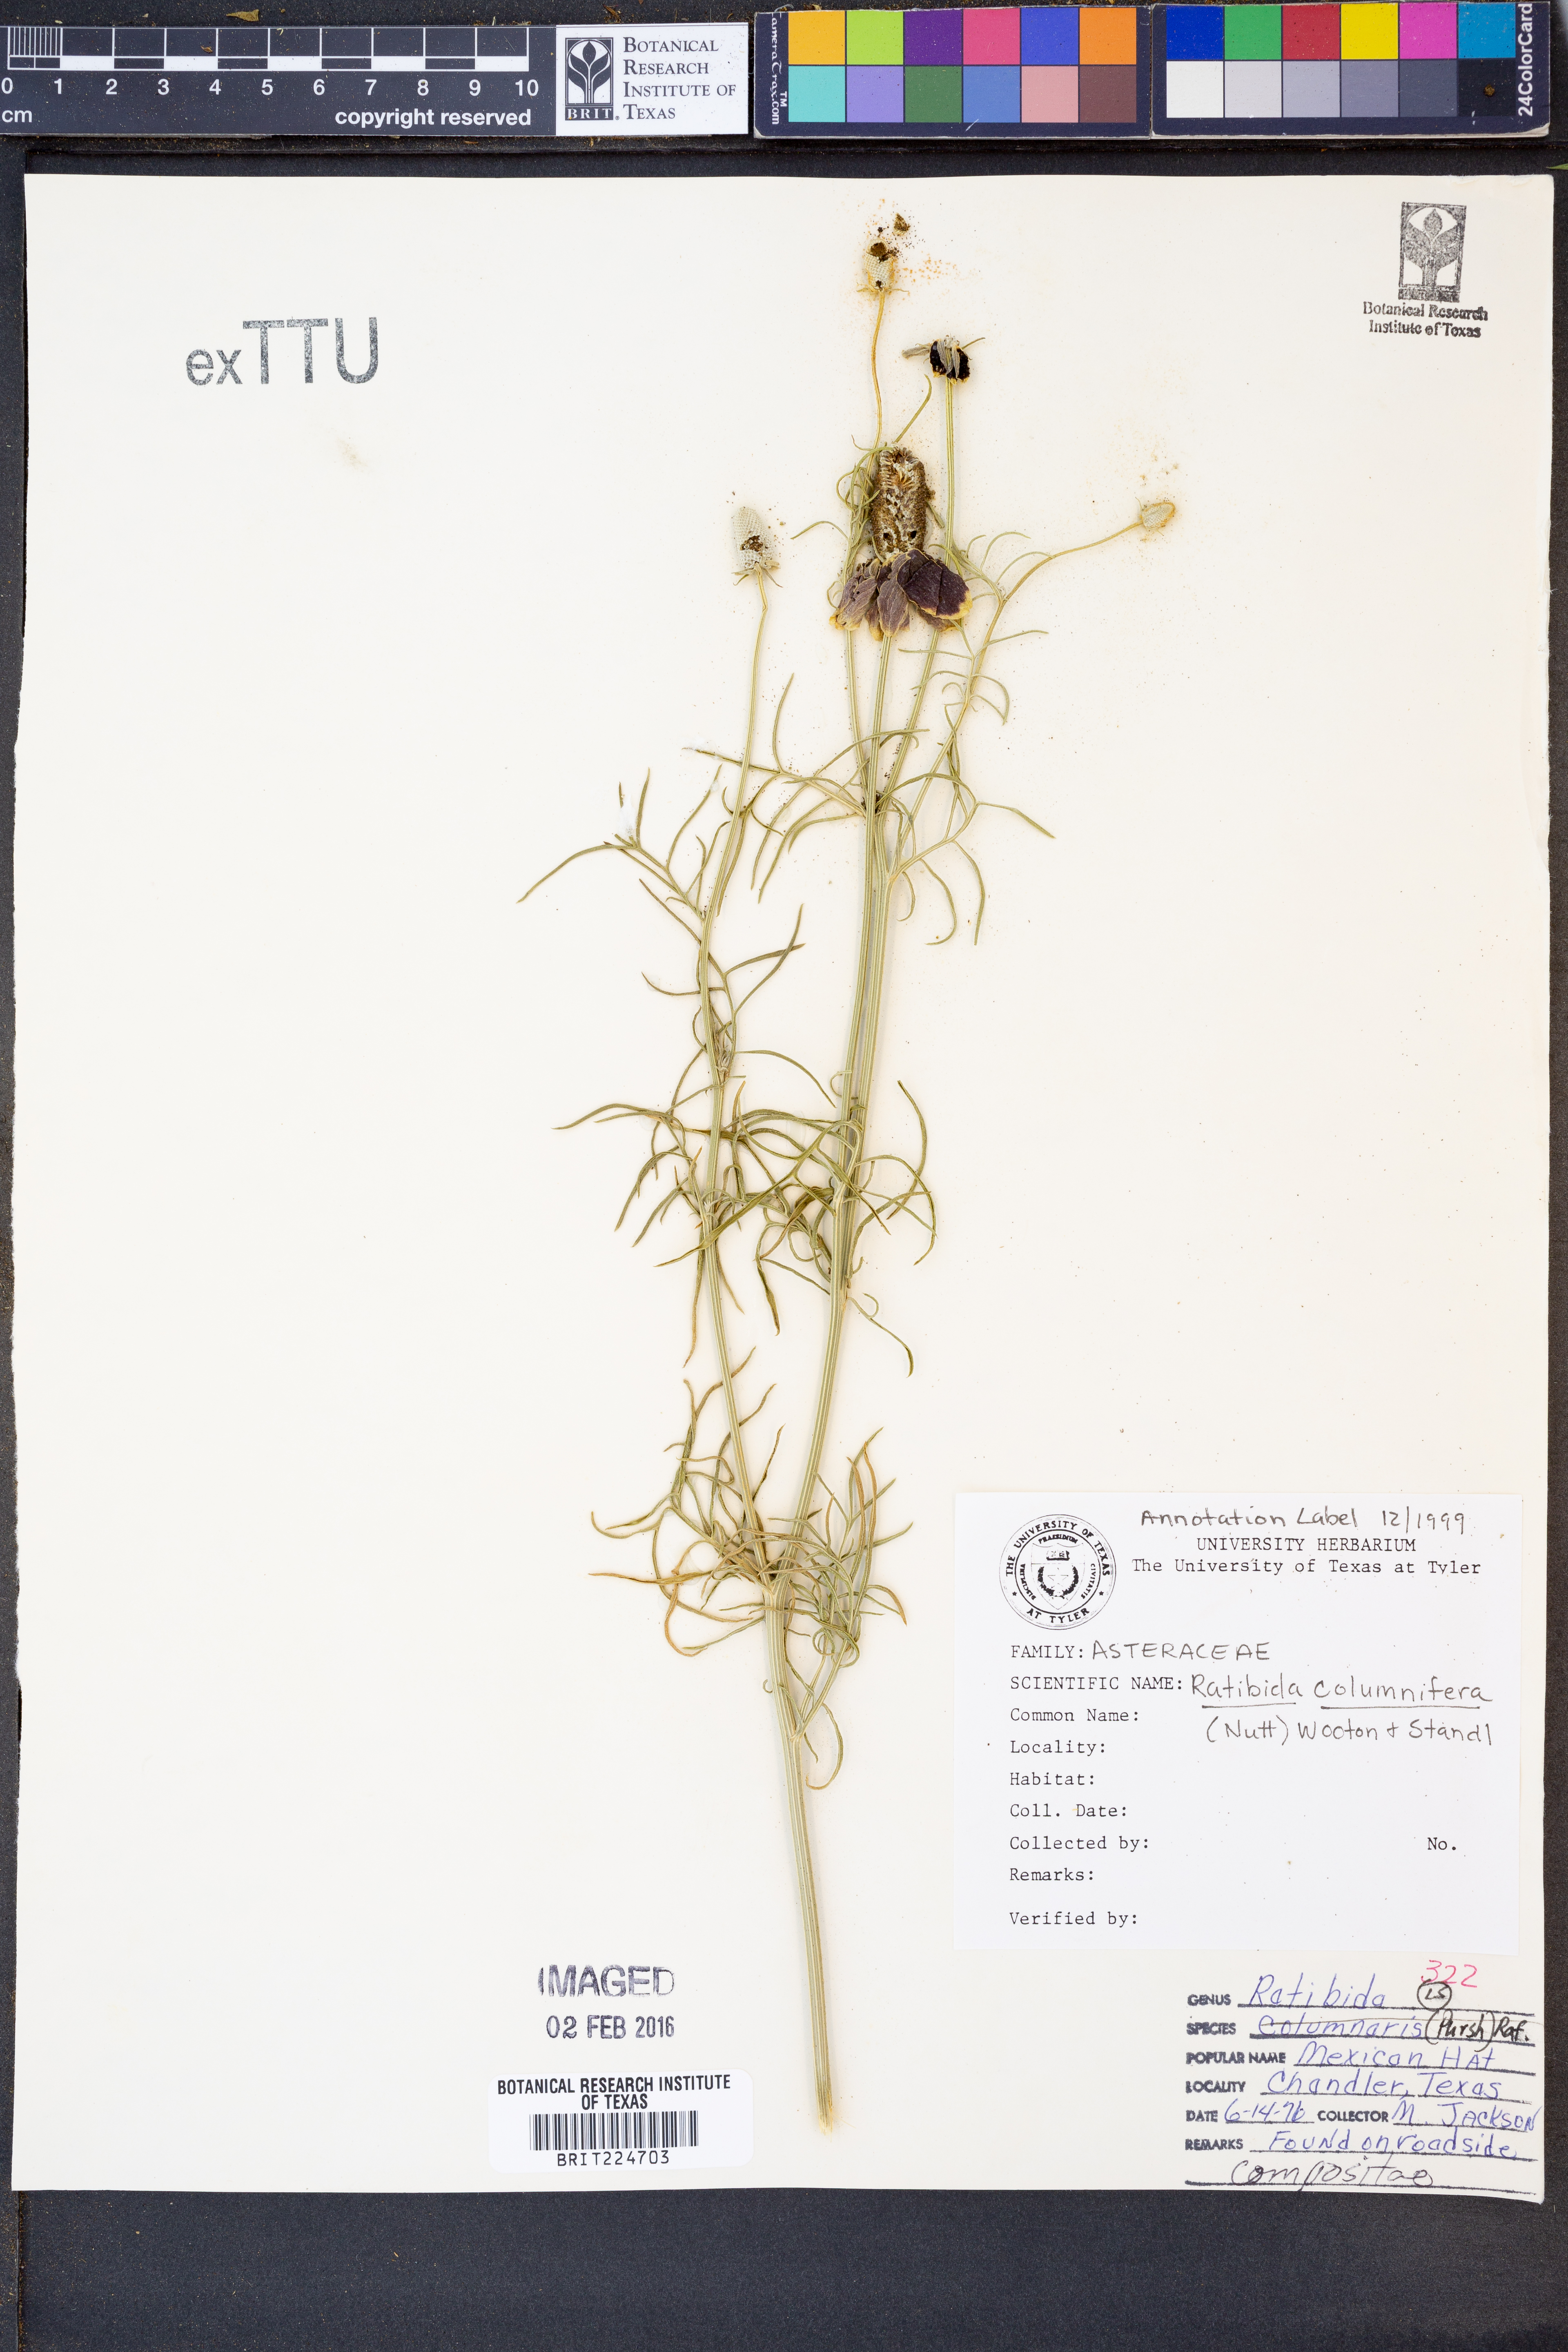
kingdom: Plantae
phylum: Tracheophyta
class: Magnoliopsida
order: Asterales
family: Asteraceae
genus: Ratibida
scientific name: Ratibida columnifera
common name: Prairie coneflower
